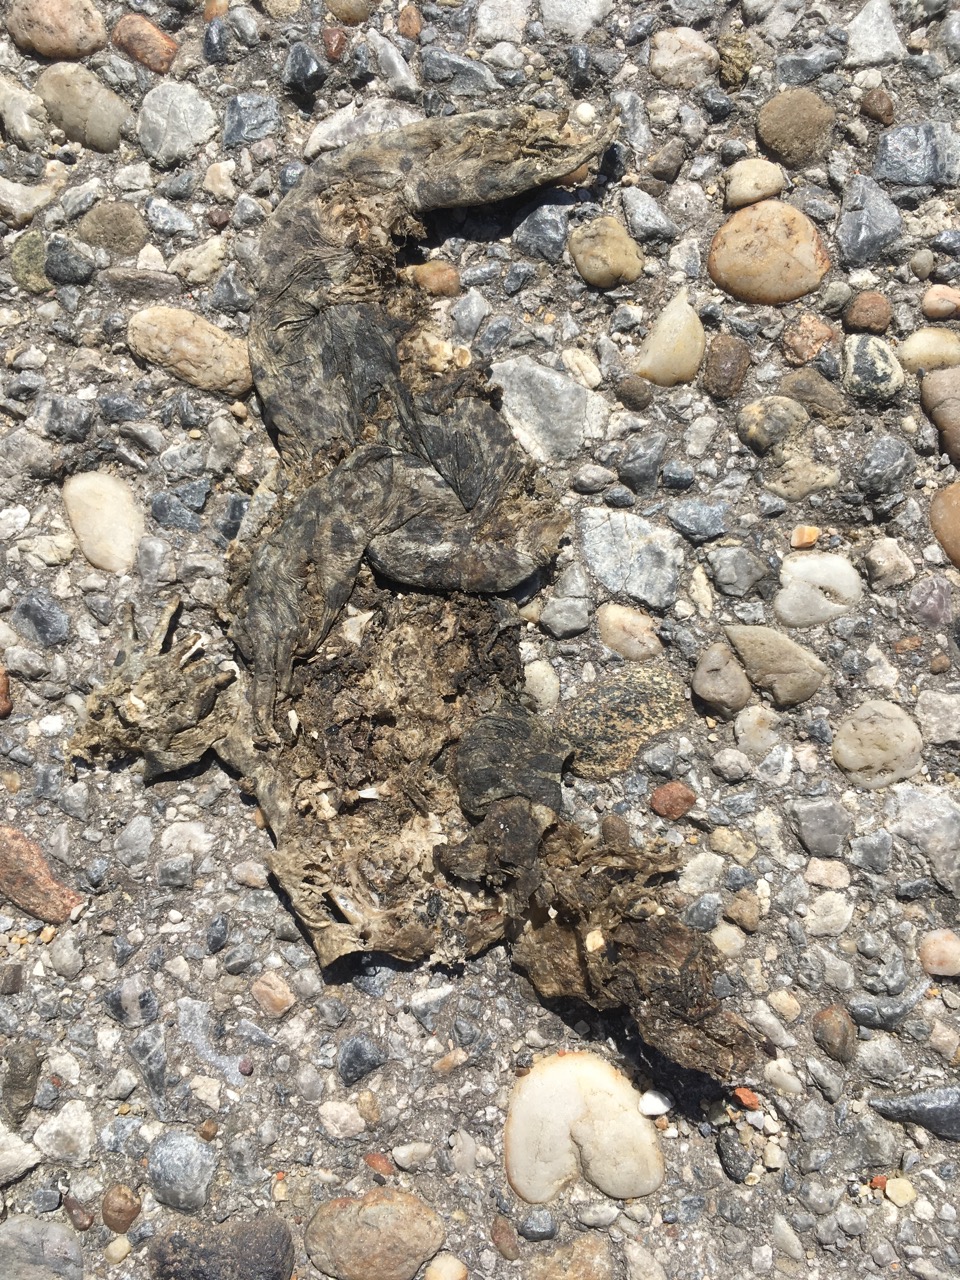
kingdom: Animalia
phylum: Chordata
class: Amphibia
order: Anura
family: Bufonidae
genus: Bufotes
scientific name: Bufotes viridis
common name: European green toad
